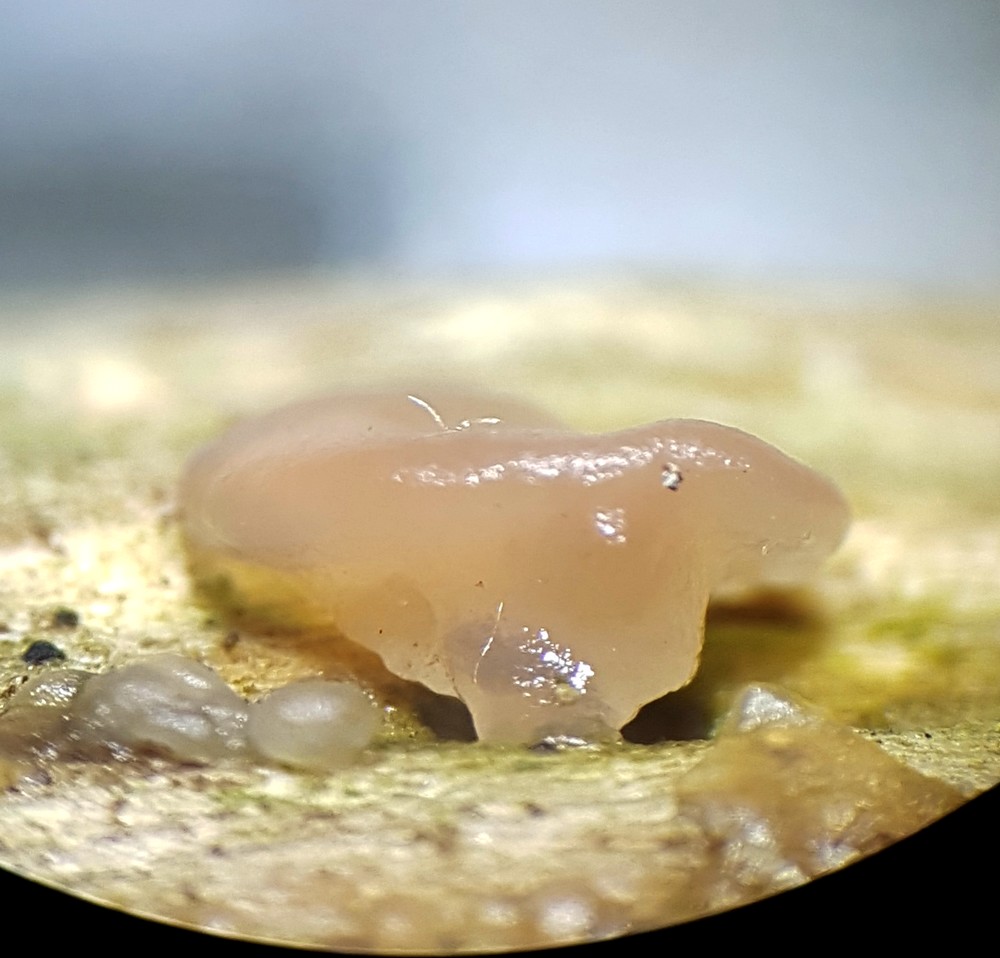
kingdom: Fungi
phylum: Basidiomycota
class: Agaricomycetes
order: Auriculariales
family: Hyaloriaceae
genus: Myxarium
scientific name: Myxarium
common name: bævretop
